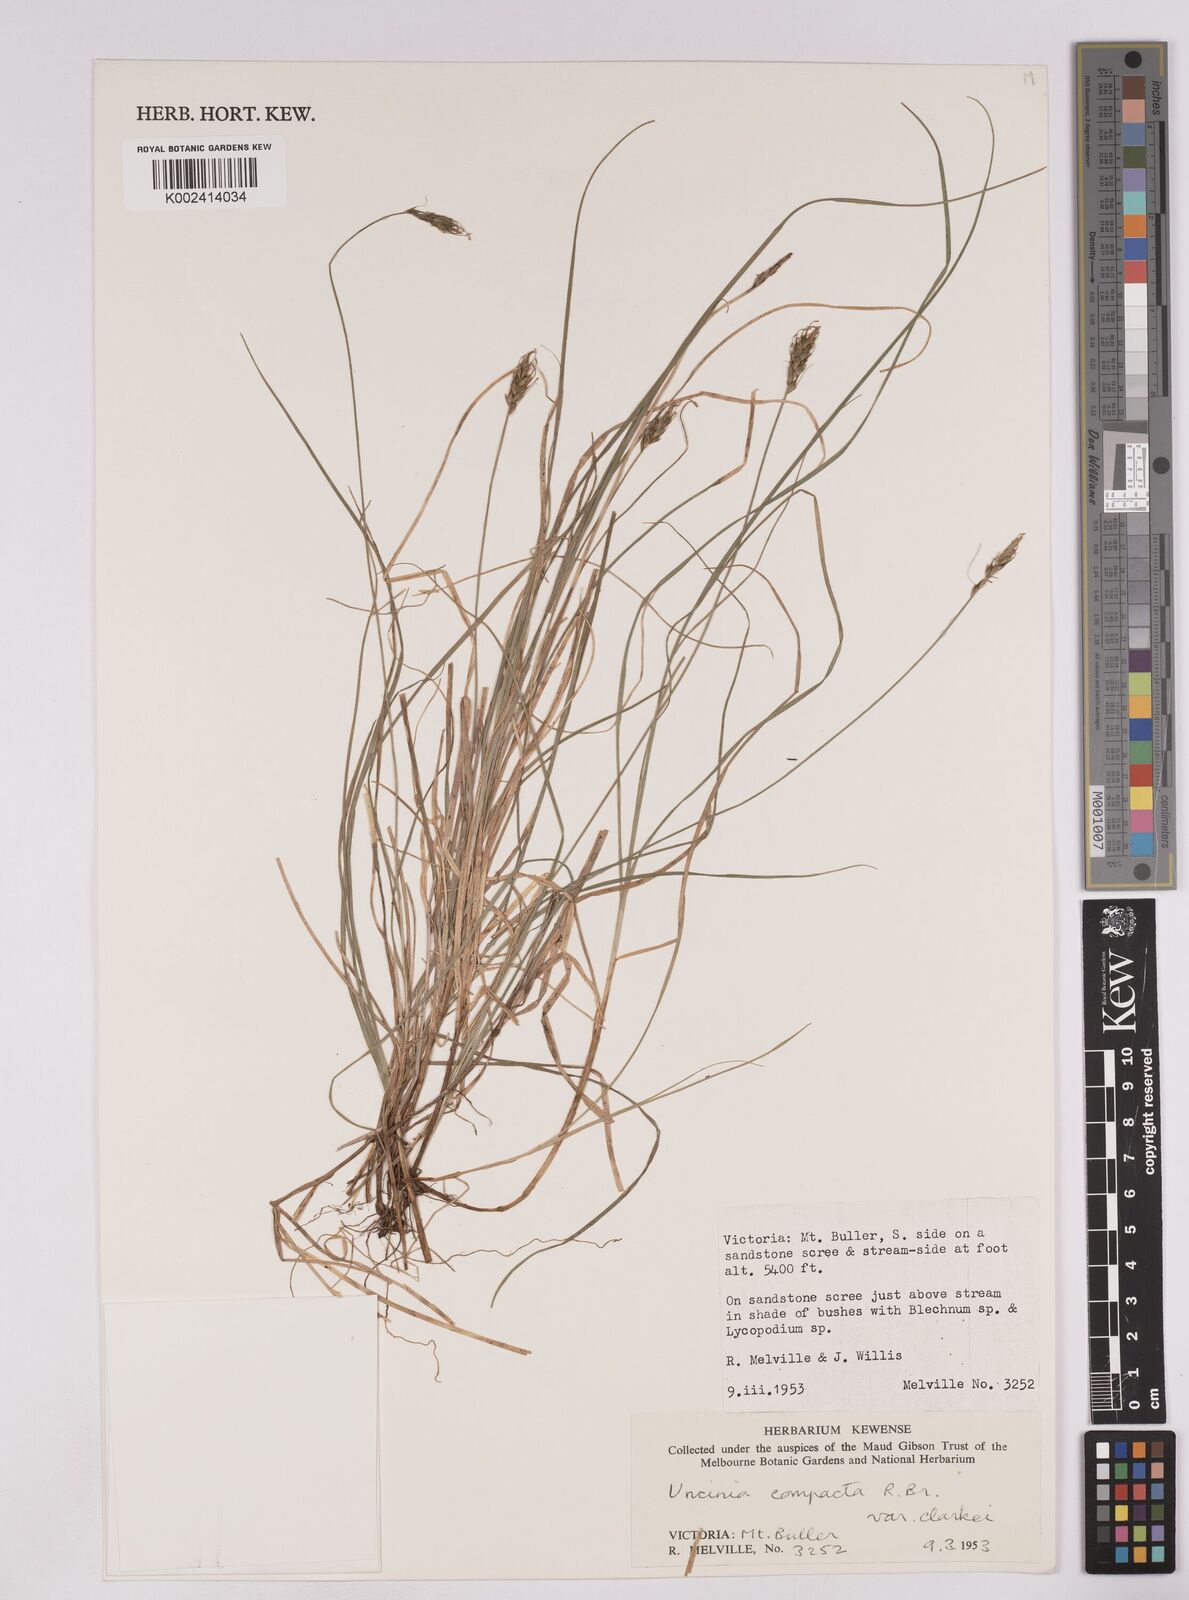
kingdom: Plantae
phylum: Tracheophyta
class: Liliopsida
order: Poales
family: Cyperaceae
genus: Carex
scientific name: Carex austrocompacta
